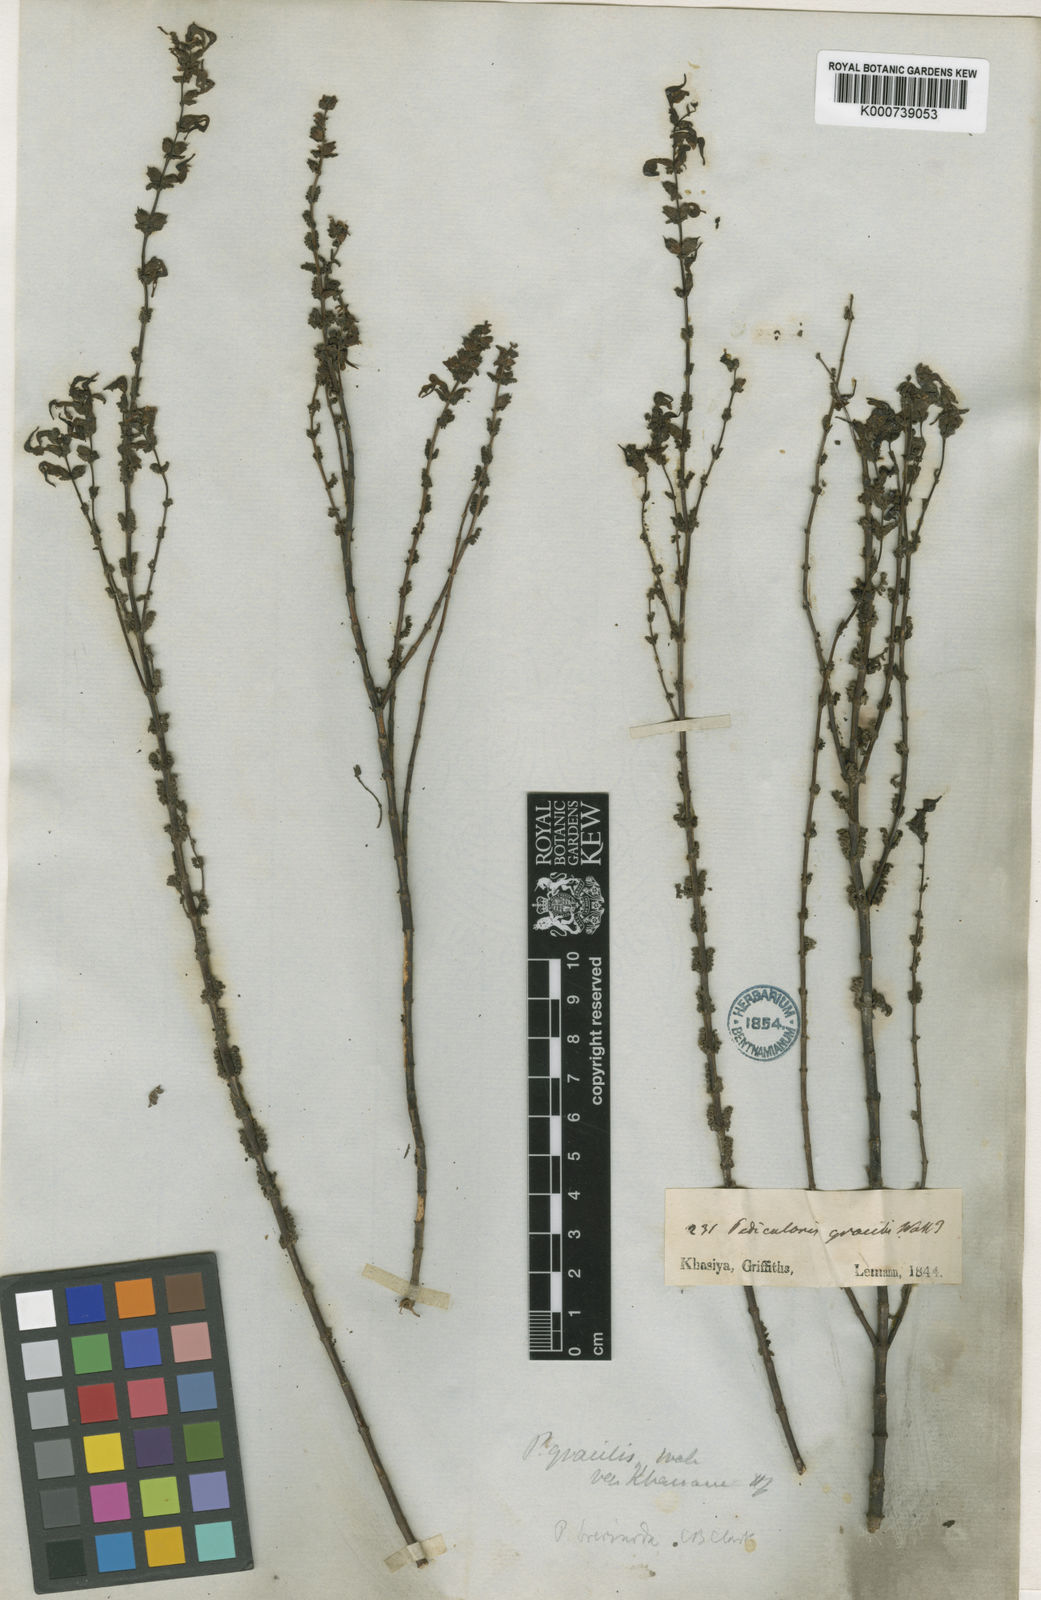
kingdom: Plantae
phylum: Tracheophyta
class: Magnoliopsida
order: Lamiales
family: Orobanchaceae
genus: Pedicularis
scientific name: Pedicularis
